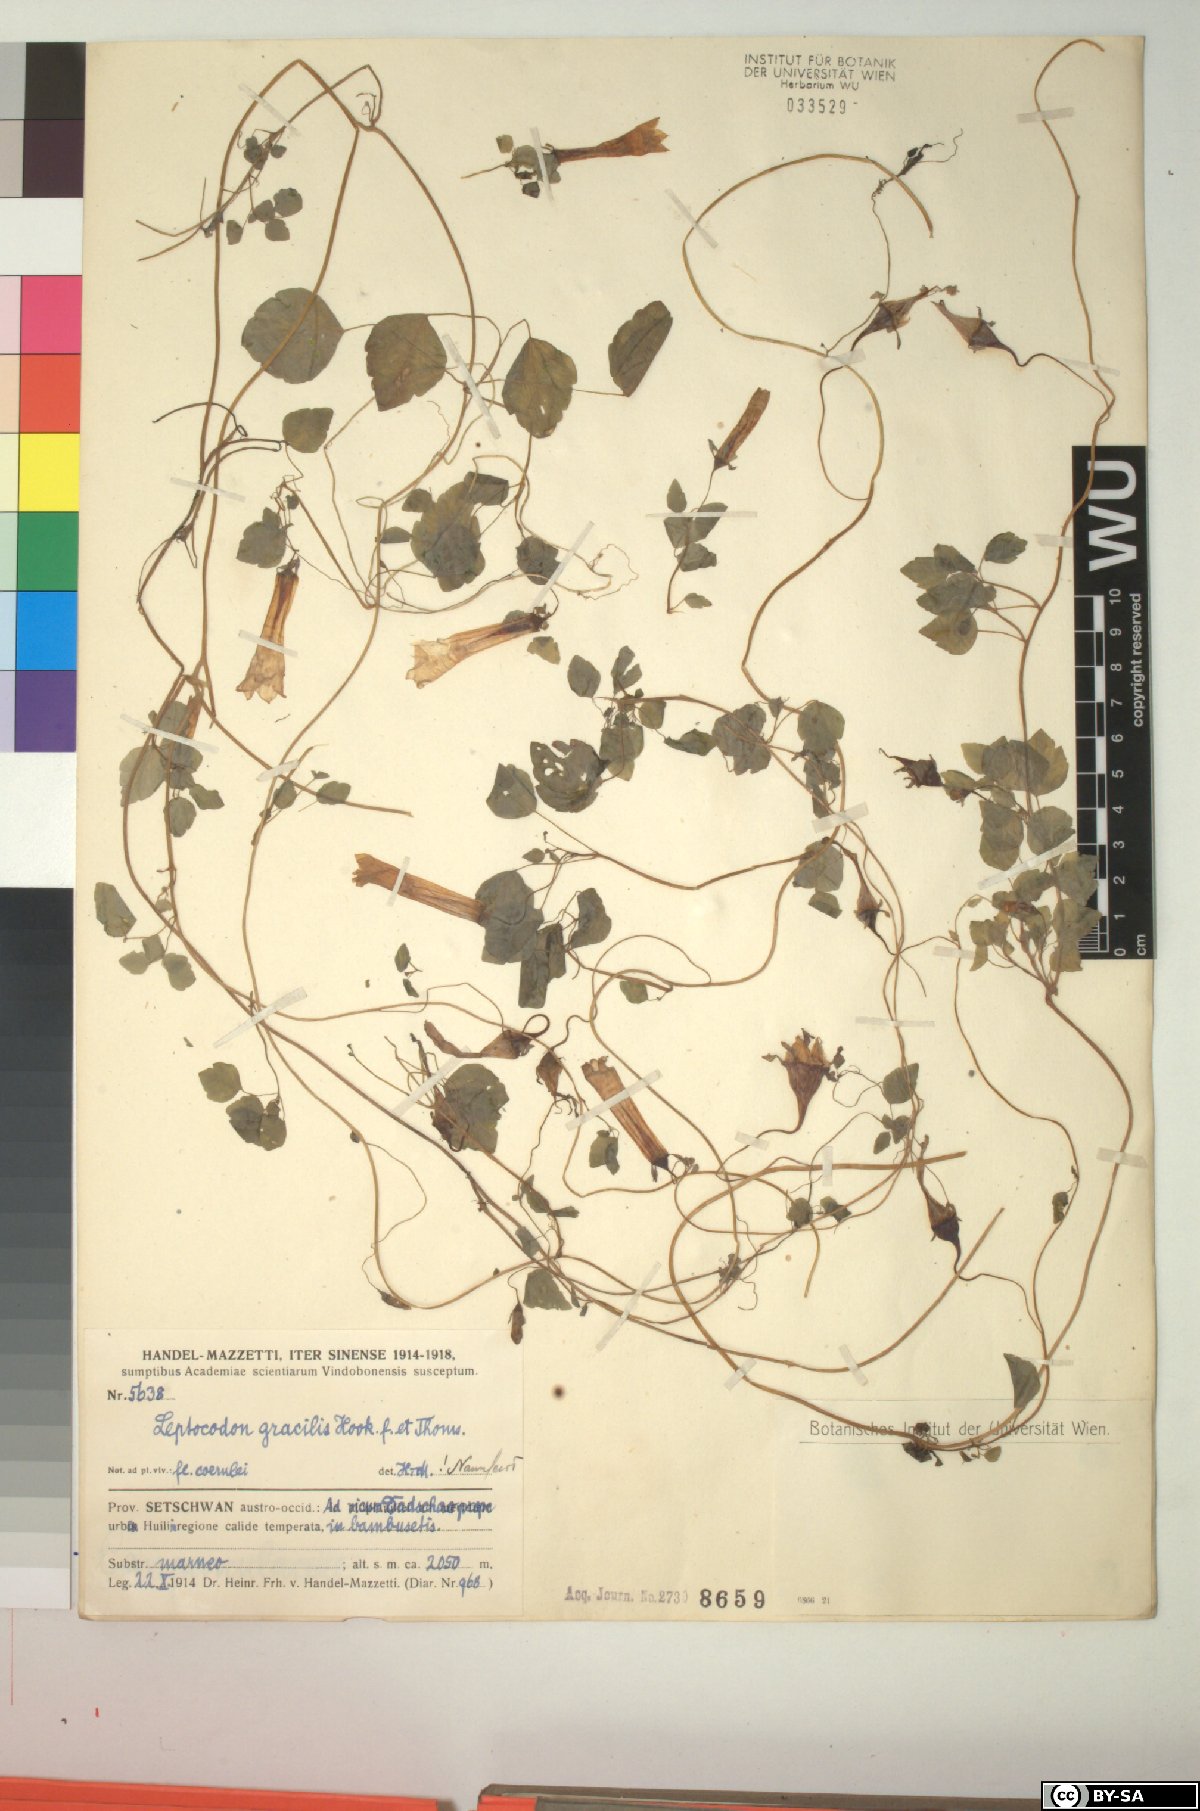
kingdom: Plantae
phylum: Tracheophyta
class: Magnoliopsida
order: Asterales
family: Campanulaceae
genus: Codonopsis
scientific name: Codonopsis gracilis
